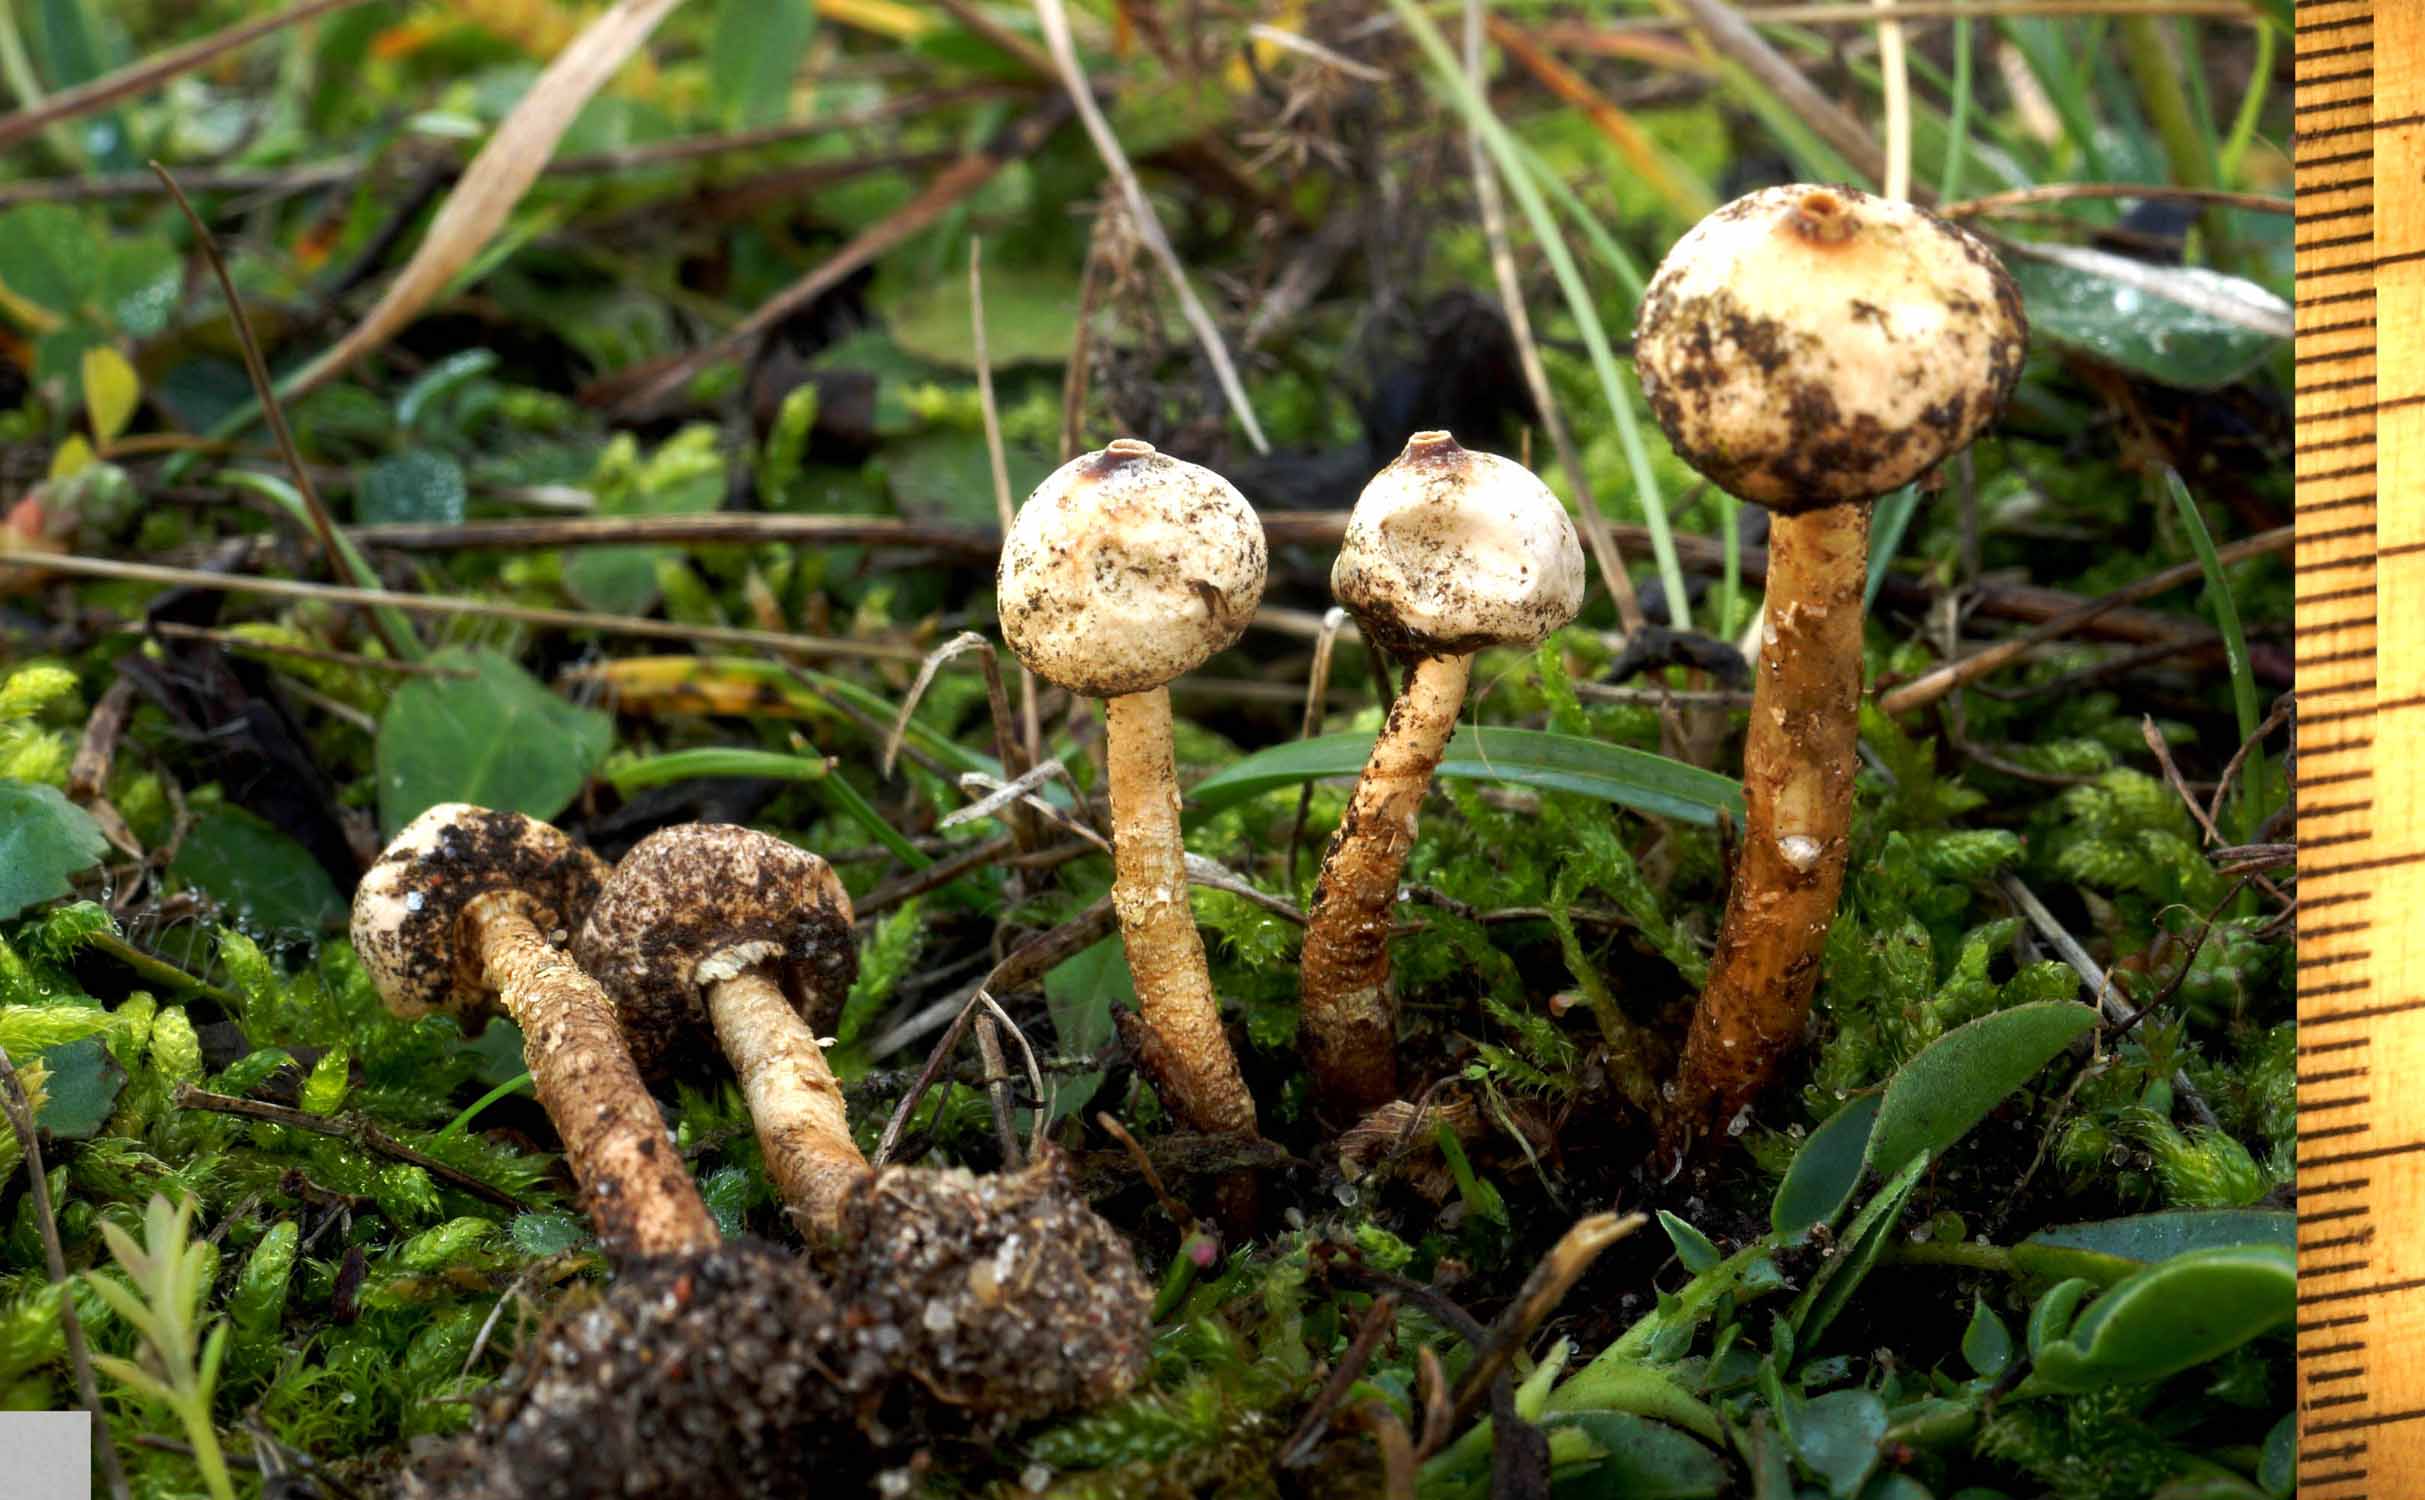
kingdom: Fungi
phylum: Basidiomycota
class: Agaricomycetes
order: Agaricales
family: Agaricaceae
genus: Tulostoma
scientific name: Tulostoma brumale
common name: vinter-stilkbovist
